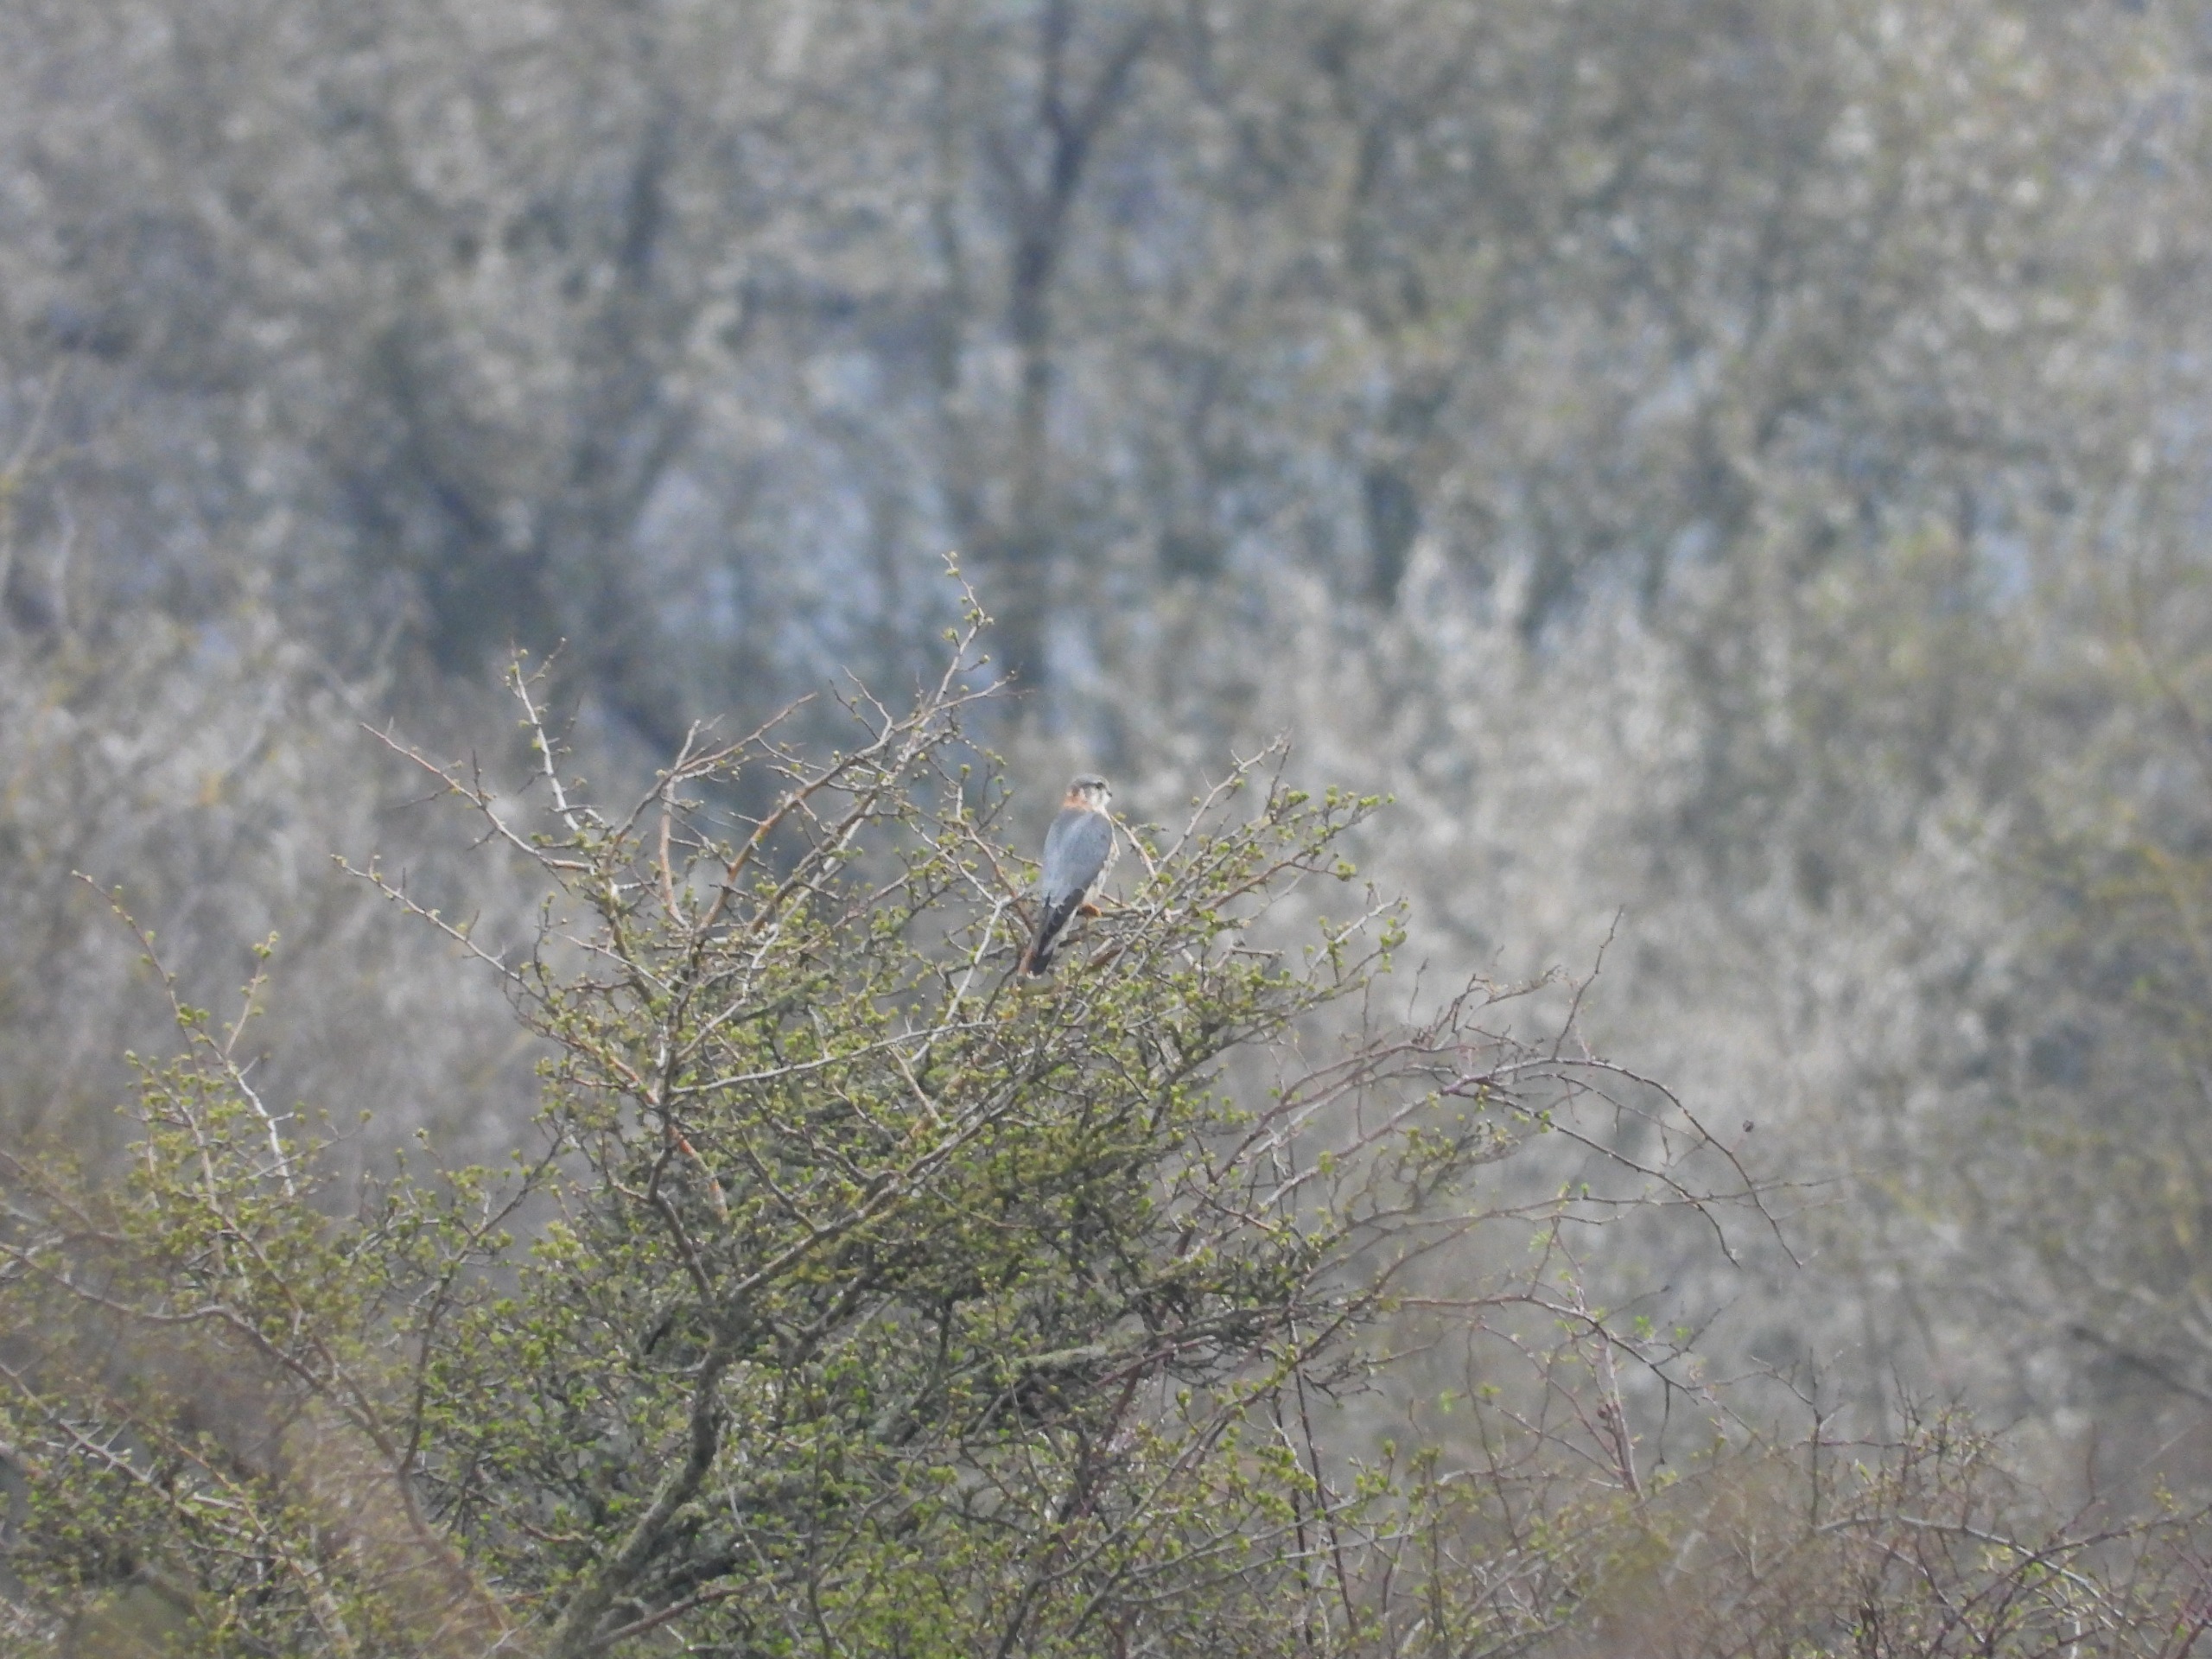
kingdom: Animalia
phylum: Chordata
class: Aves
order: Falconiformes
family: Falconidae
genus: Falco
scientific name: Falco columbarius
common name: Dværgfalk
